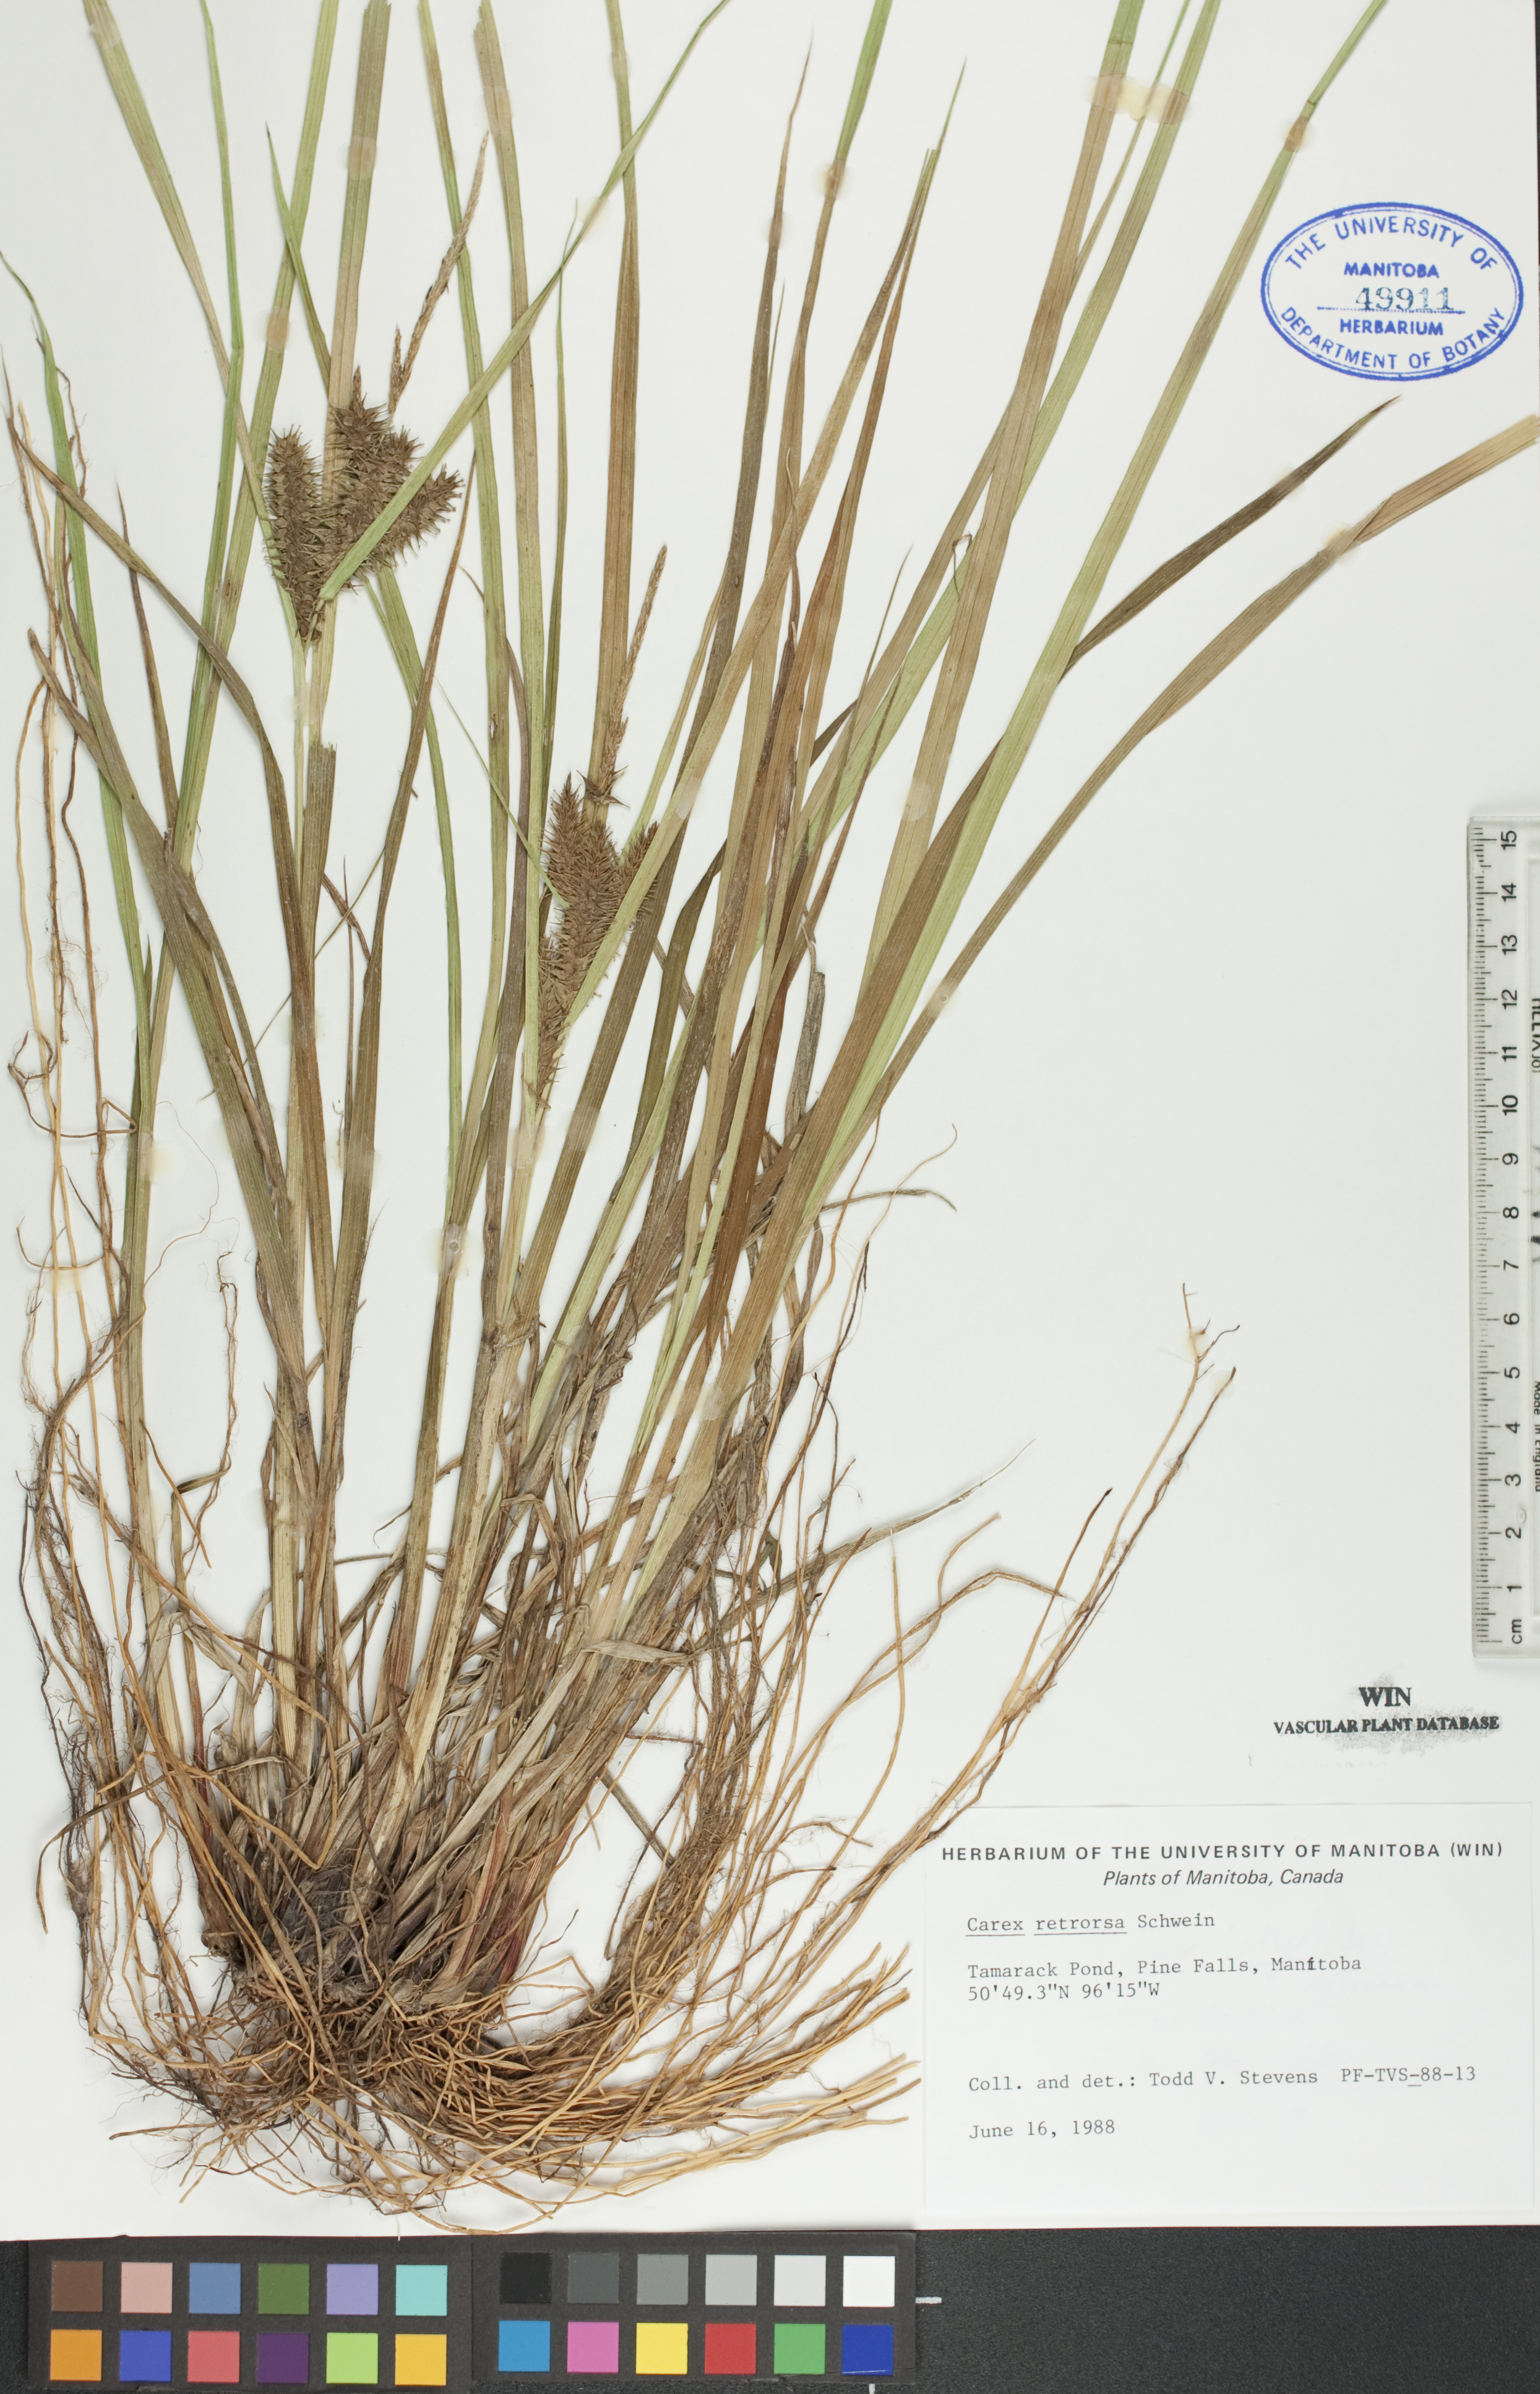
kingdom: Plantae
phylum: Tracheophyta
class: Liliopsida
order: Poales
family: Cyperaceae
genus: Carex
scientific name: Carex retrorsa
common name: Knot-sheath sedge
